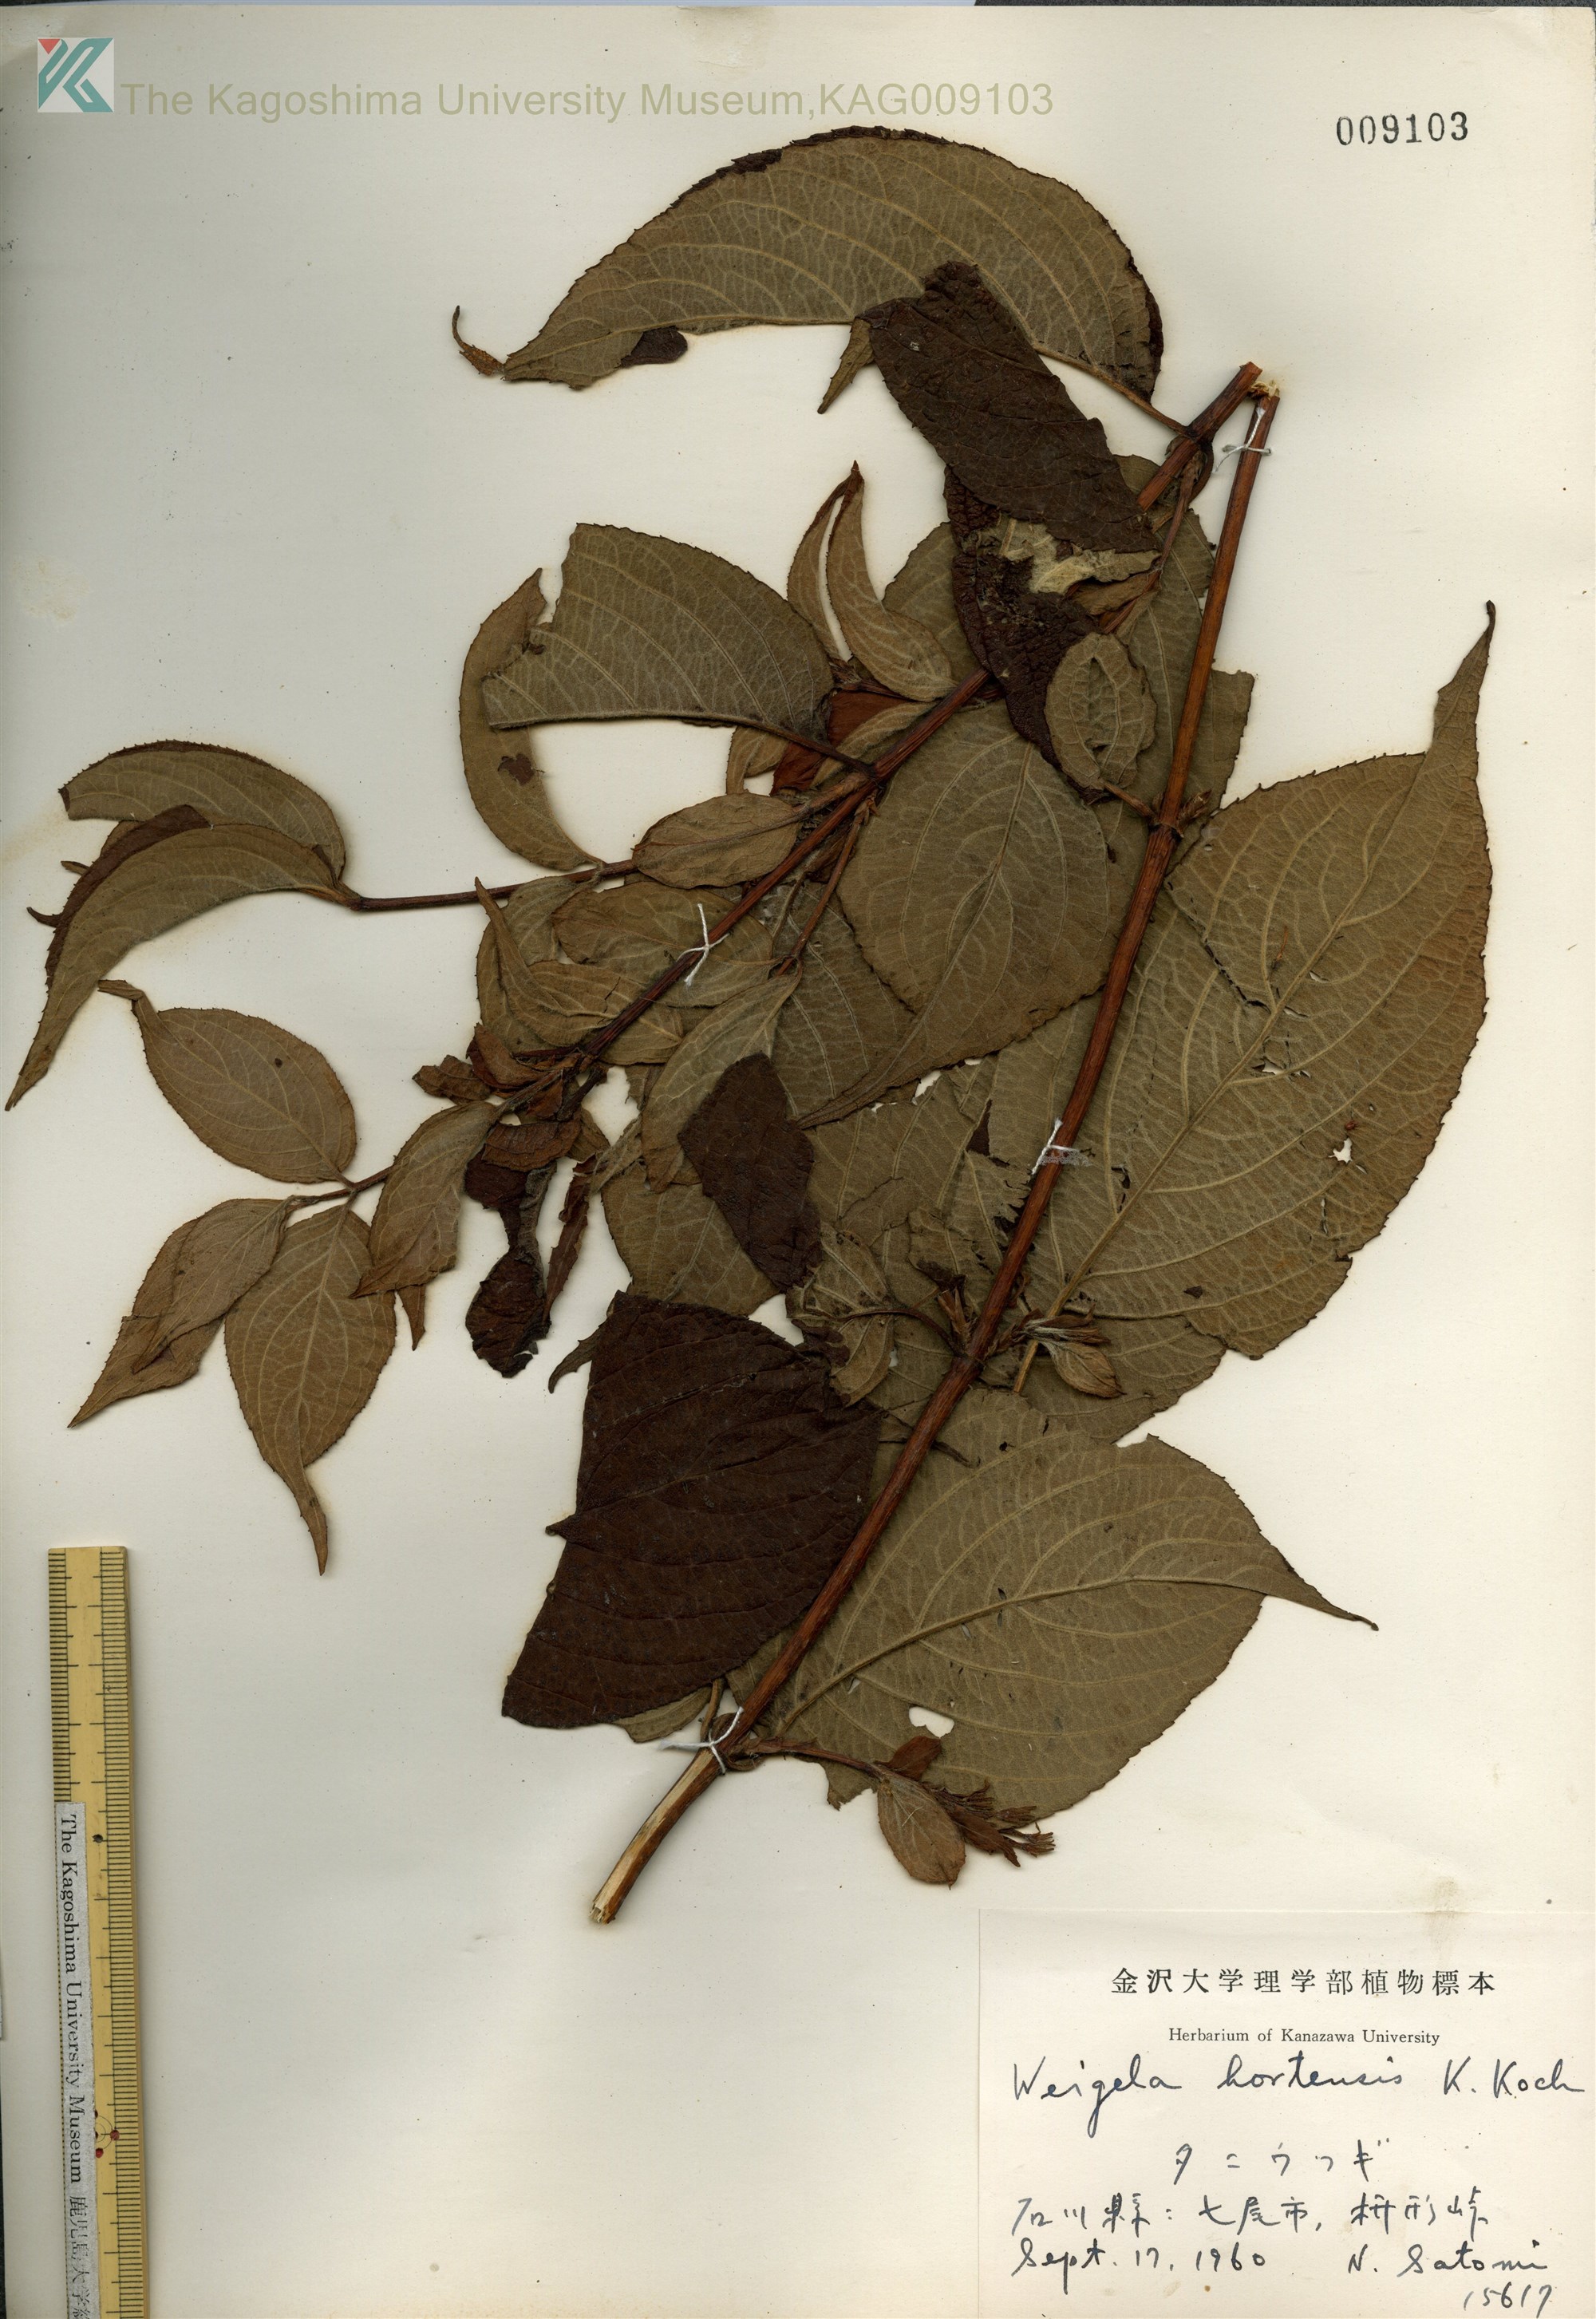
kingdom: Plantae
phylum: Tracheophyta
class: Magnoliopsida
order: Dipsacales
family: Caprifoliaceae
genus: Weigela
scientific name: Weigela hortensis
